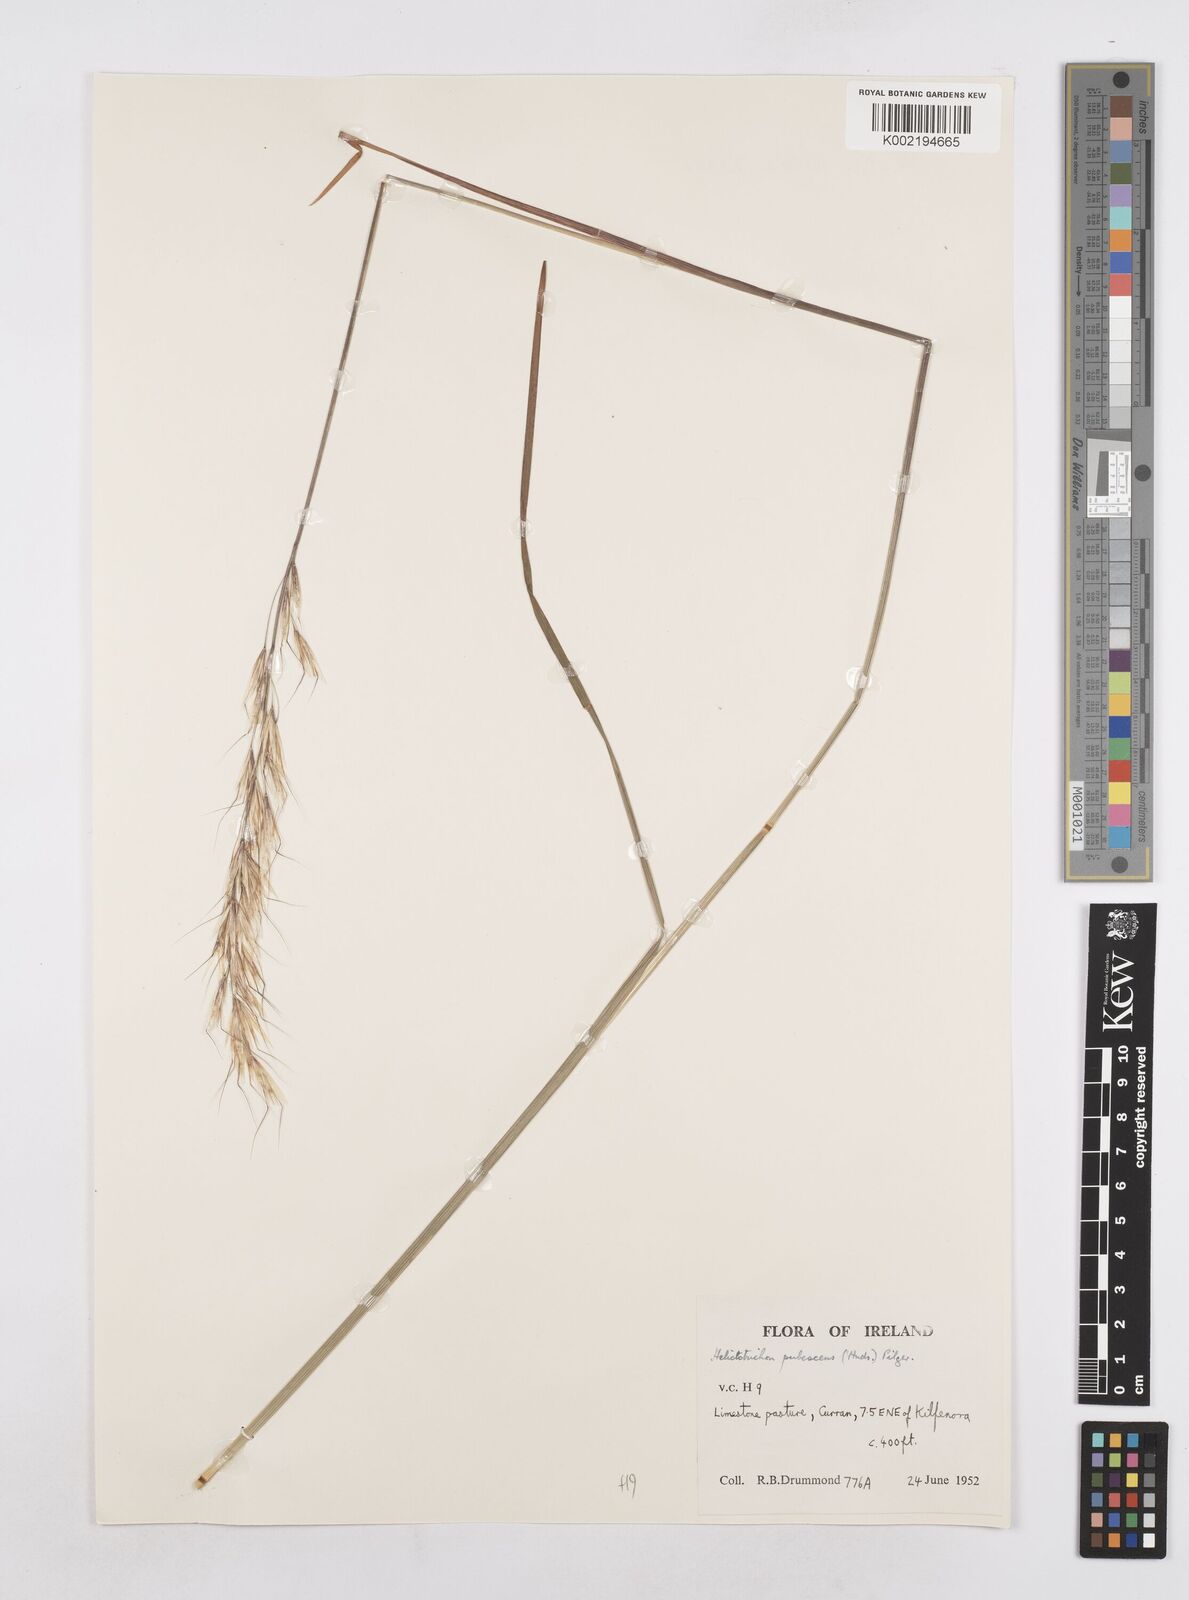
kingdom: Plantae
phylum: Tracheophyta
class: Liliopsida
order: Poales
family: Poaceae
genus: Avenula
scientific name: Avenula pubescens
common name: Downy alpine oatgrass
